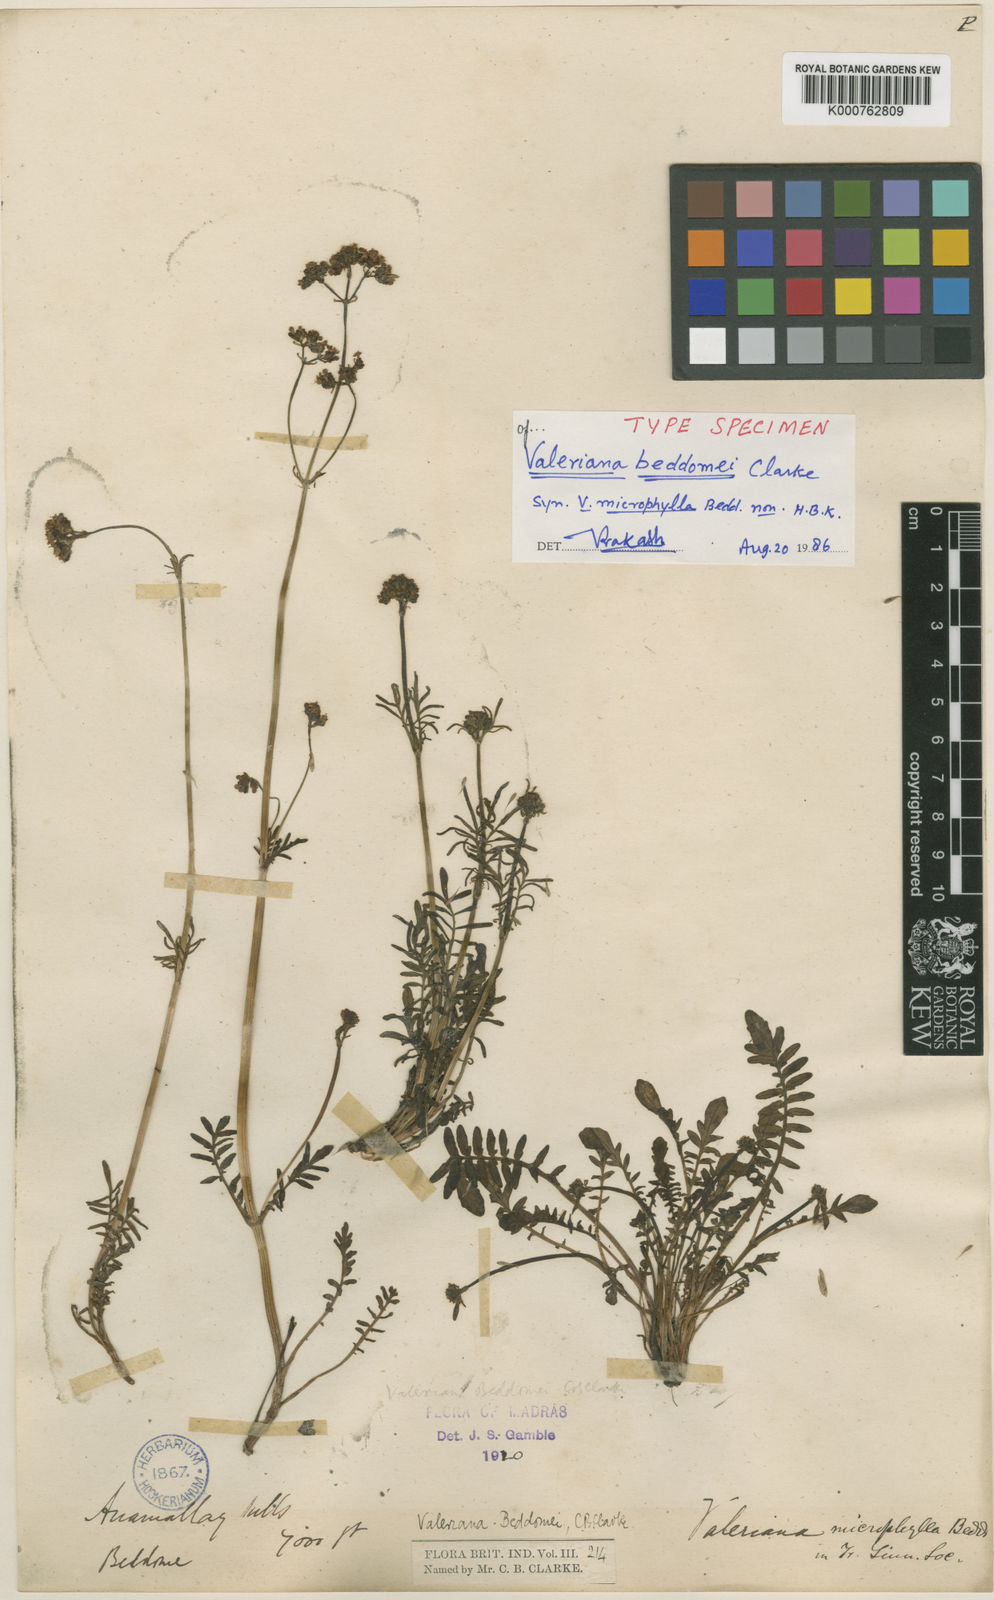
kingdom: Plantae
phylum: Tracheophyta
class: Magnoliopsida
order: Dipsacales
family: Caprifoliaceae
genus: Valeriana
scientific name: Valeriana beddomei
